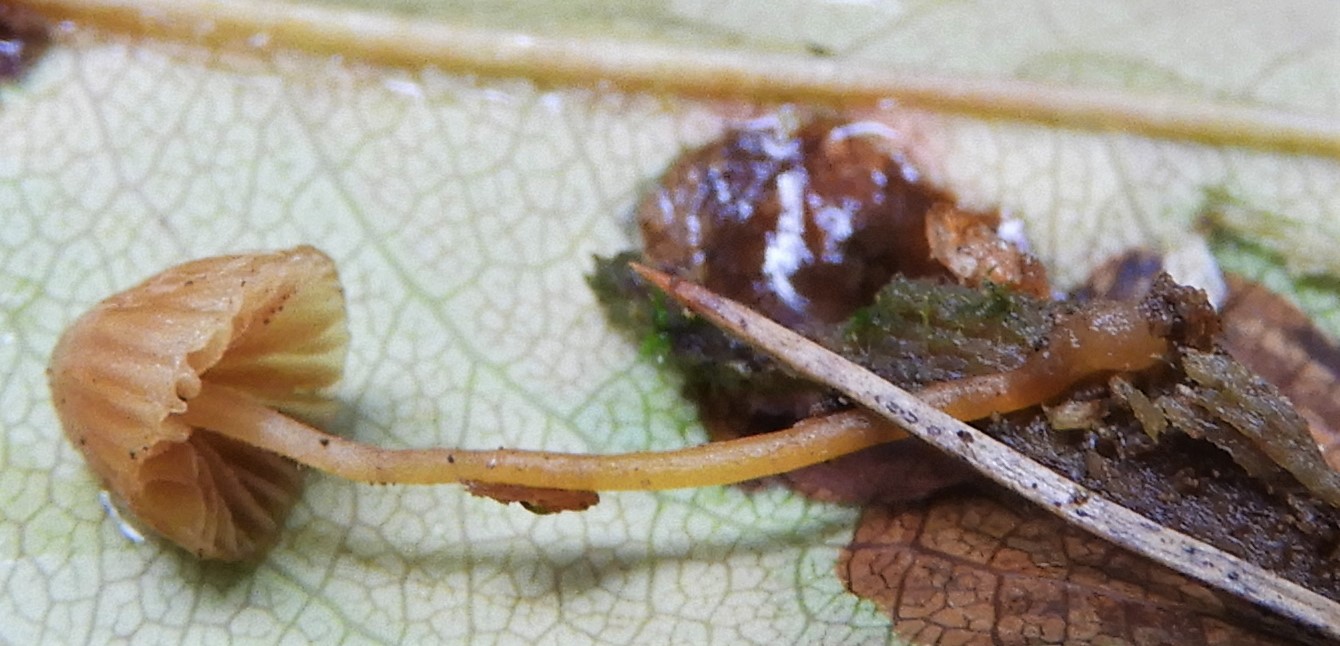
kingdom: Fungi
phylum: Basidiomycota
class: Agaricomycetes
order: Agaricales
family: Mycenaceae
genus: Mycena
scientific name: Mycena
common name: huesvamp
